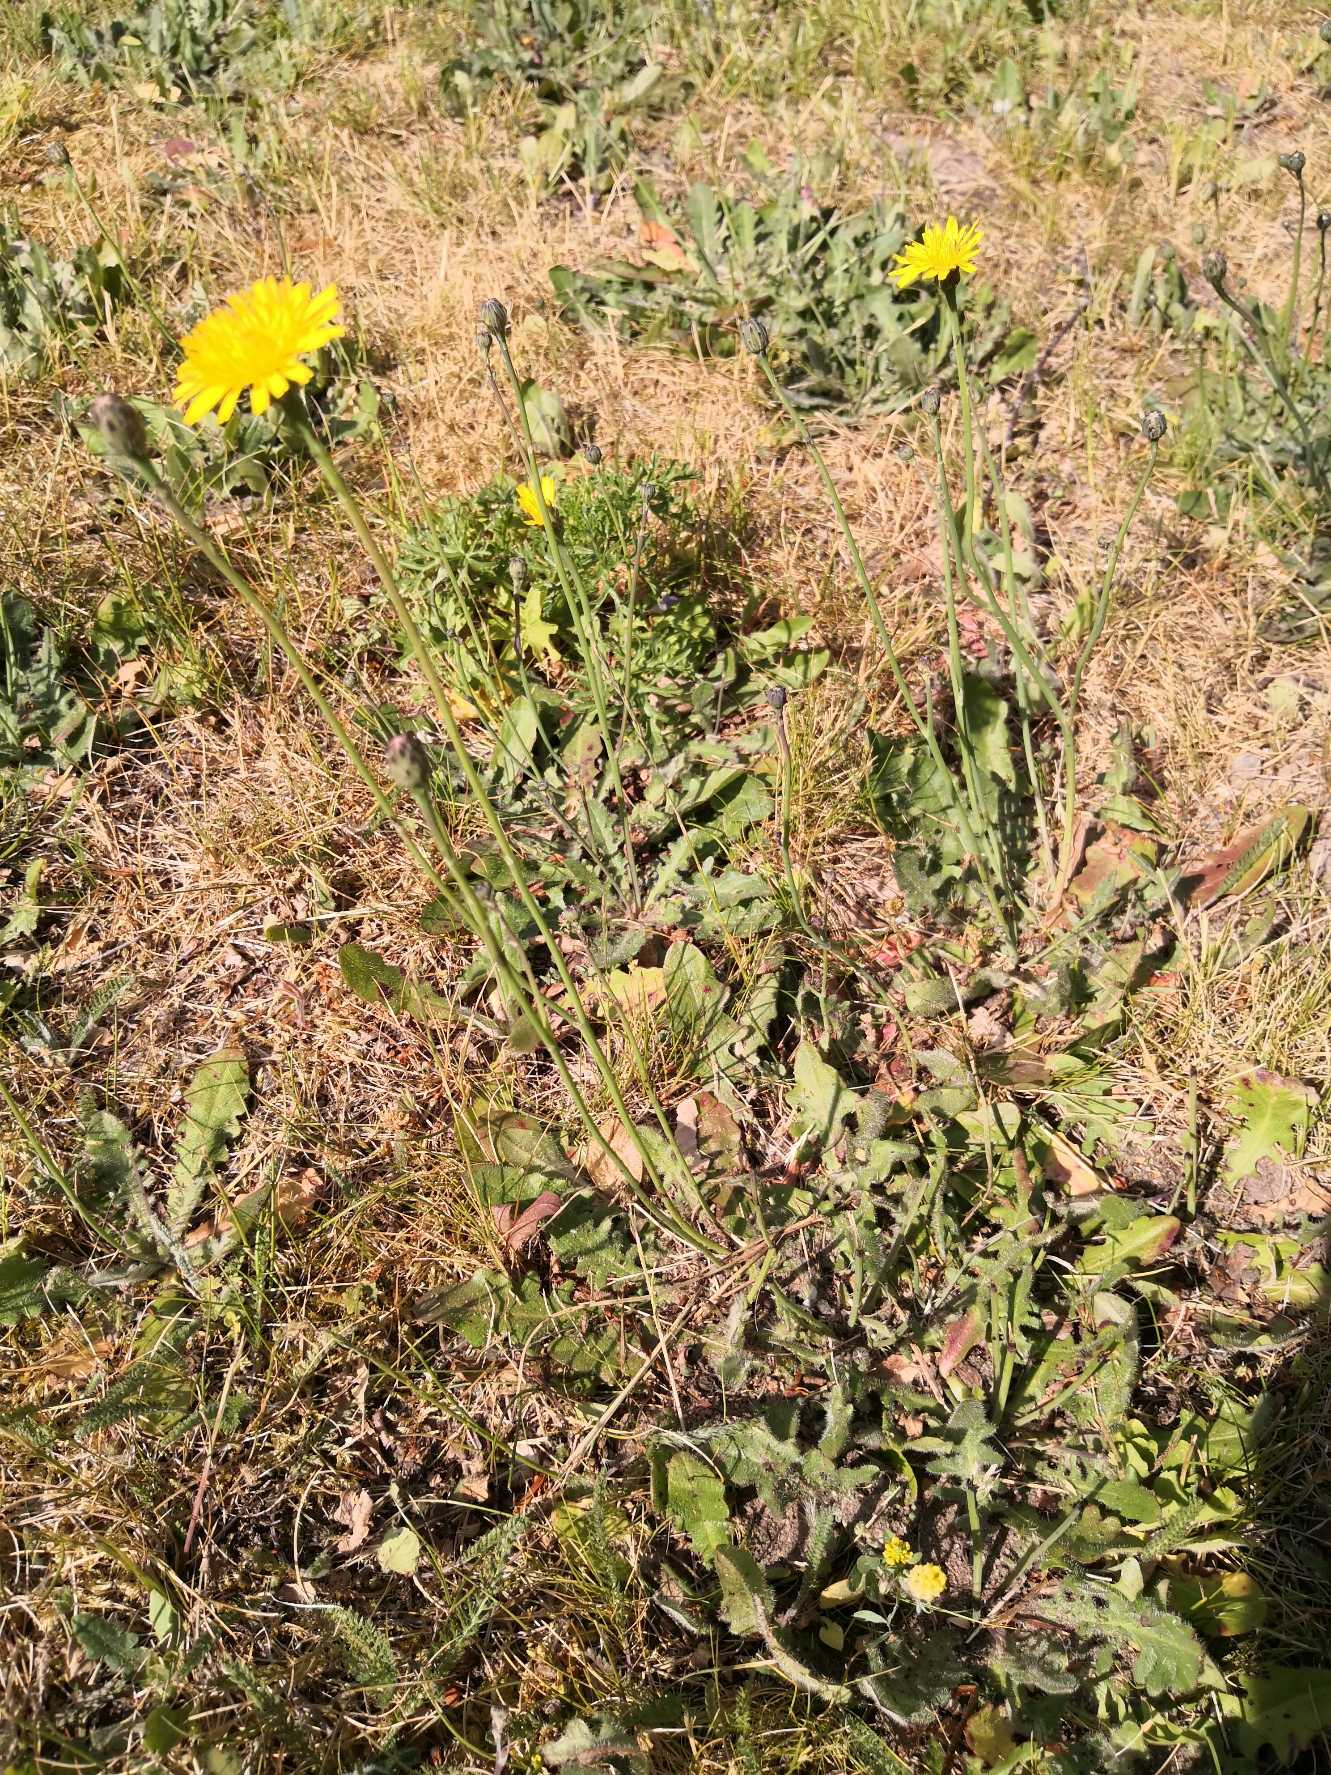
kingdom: Plantae
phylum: Tracheophyta
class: Magnoliopsida
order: Asterales
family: Asteraceae
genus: Hypochaeris
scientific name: Hypochaeris radicata
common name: Almindelig kongepen
